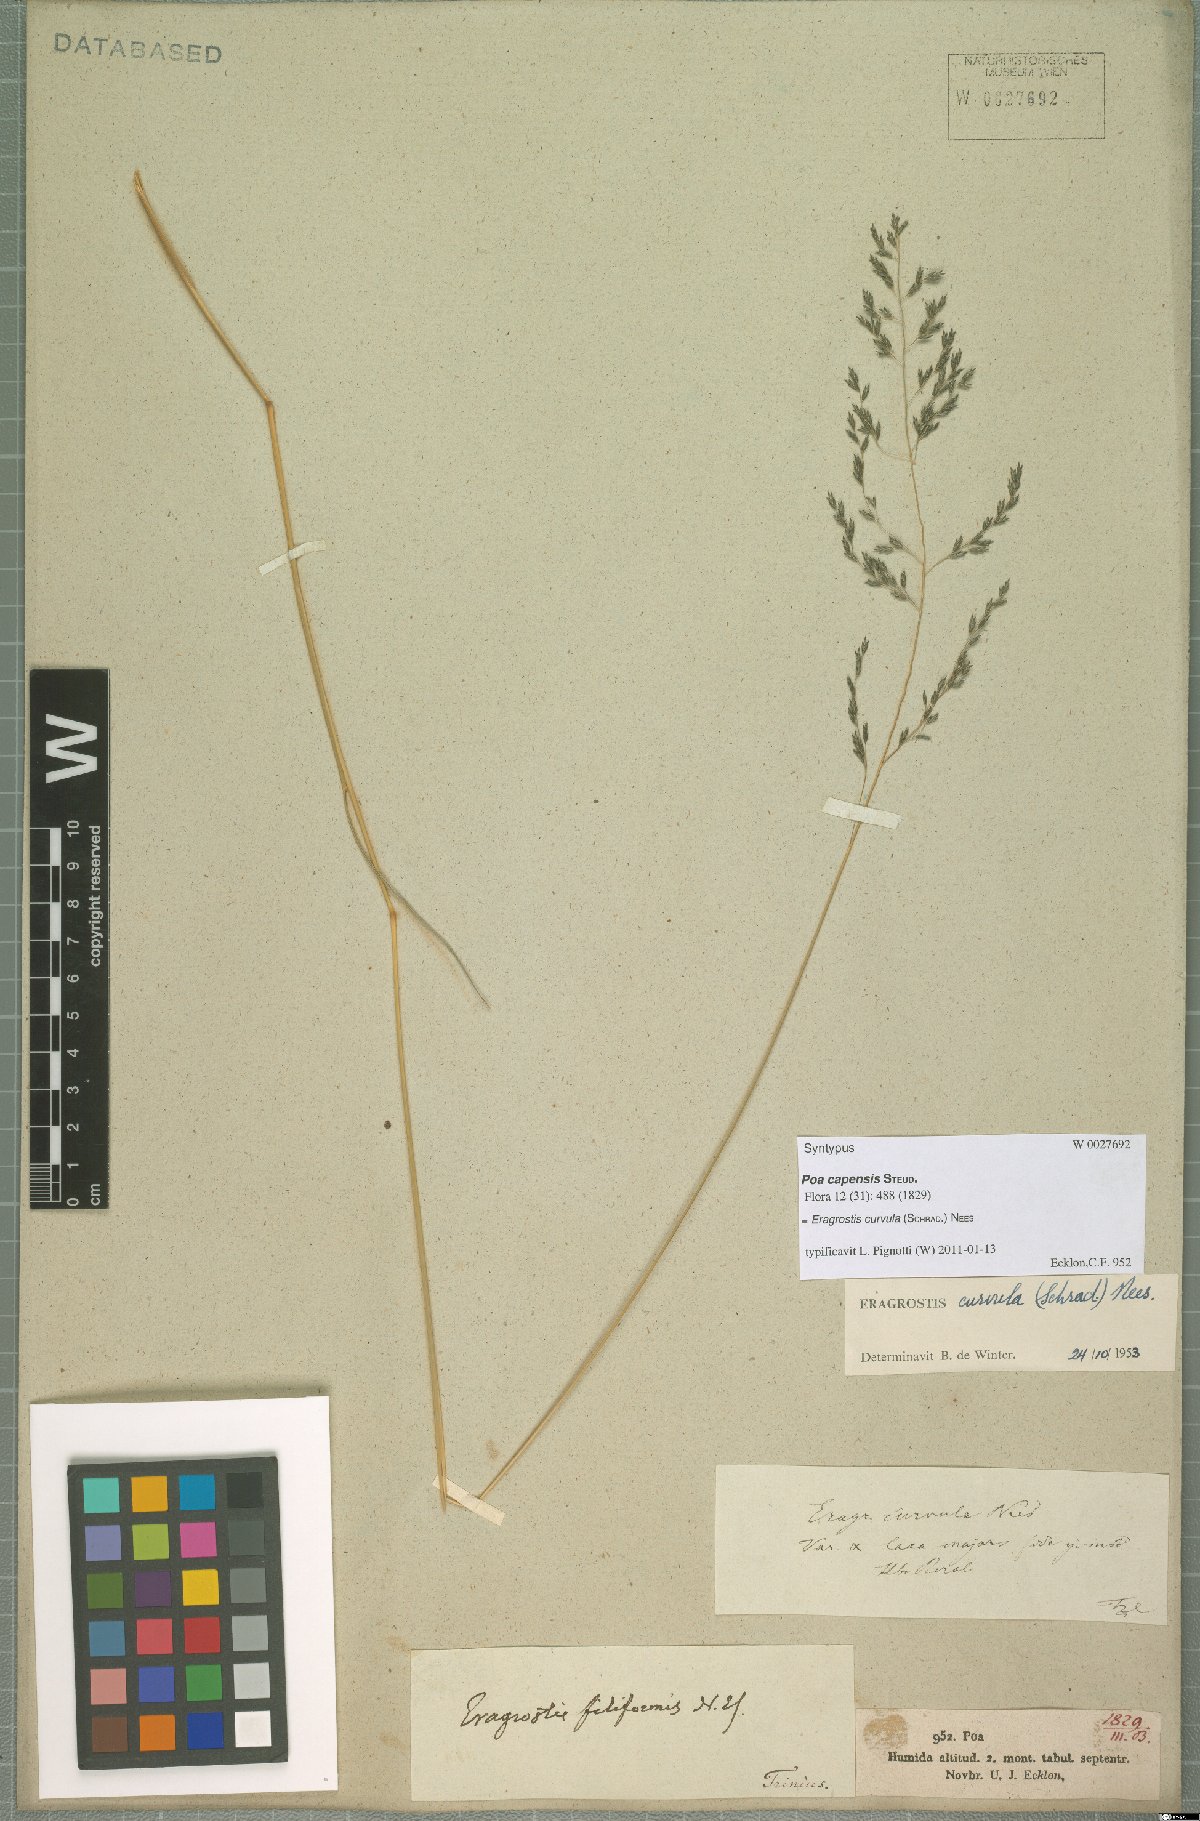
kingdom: Plantae
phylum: Tracheophyta
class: Liliopsida
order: Poales
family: Poaceae
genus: Eragrostis
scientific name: Eragrostis curvula
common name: African love-grass
